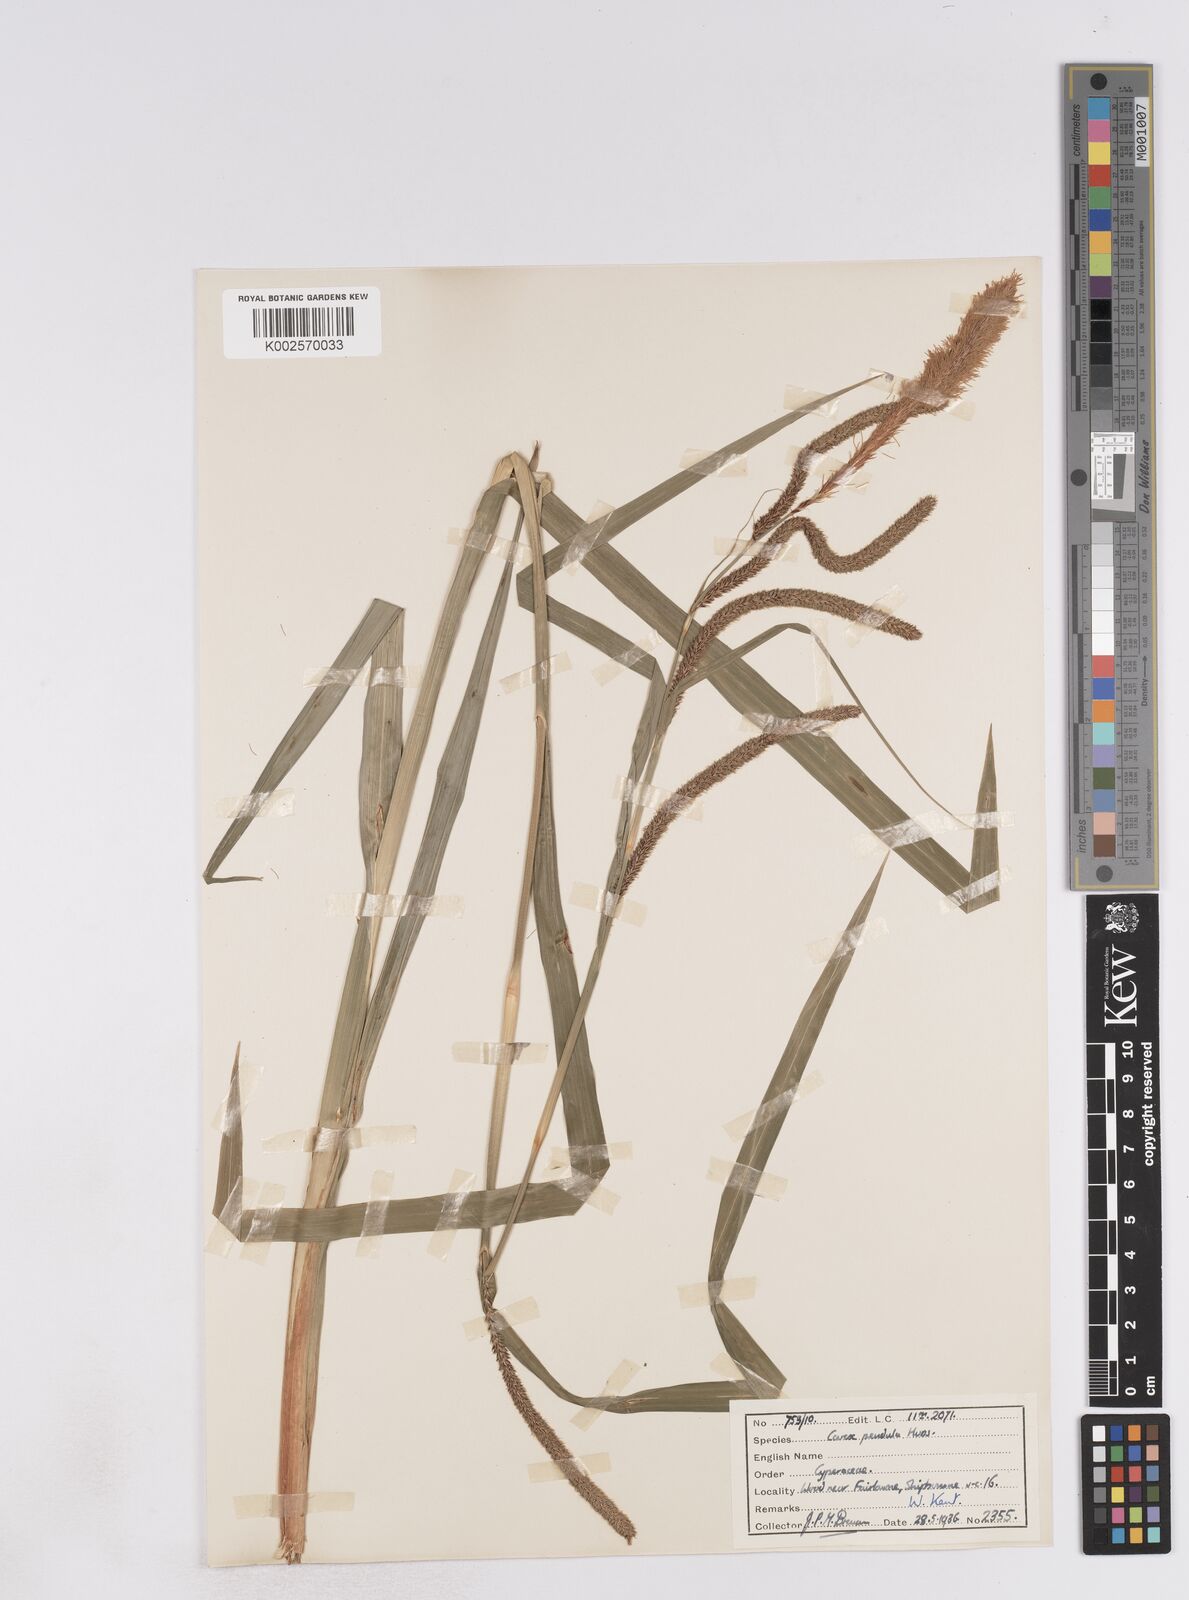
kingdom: Plantae
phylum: Tracheophyta
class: Liliopsida
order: Poales
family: Cyperaceae
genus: Carex
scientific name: Carex pendula
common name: Pendulous sedge
